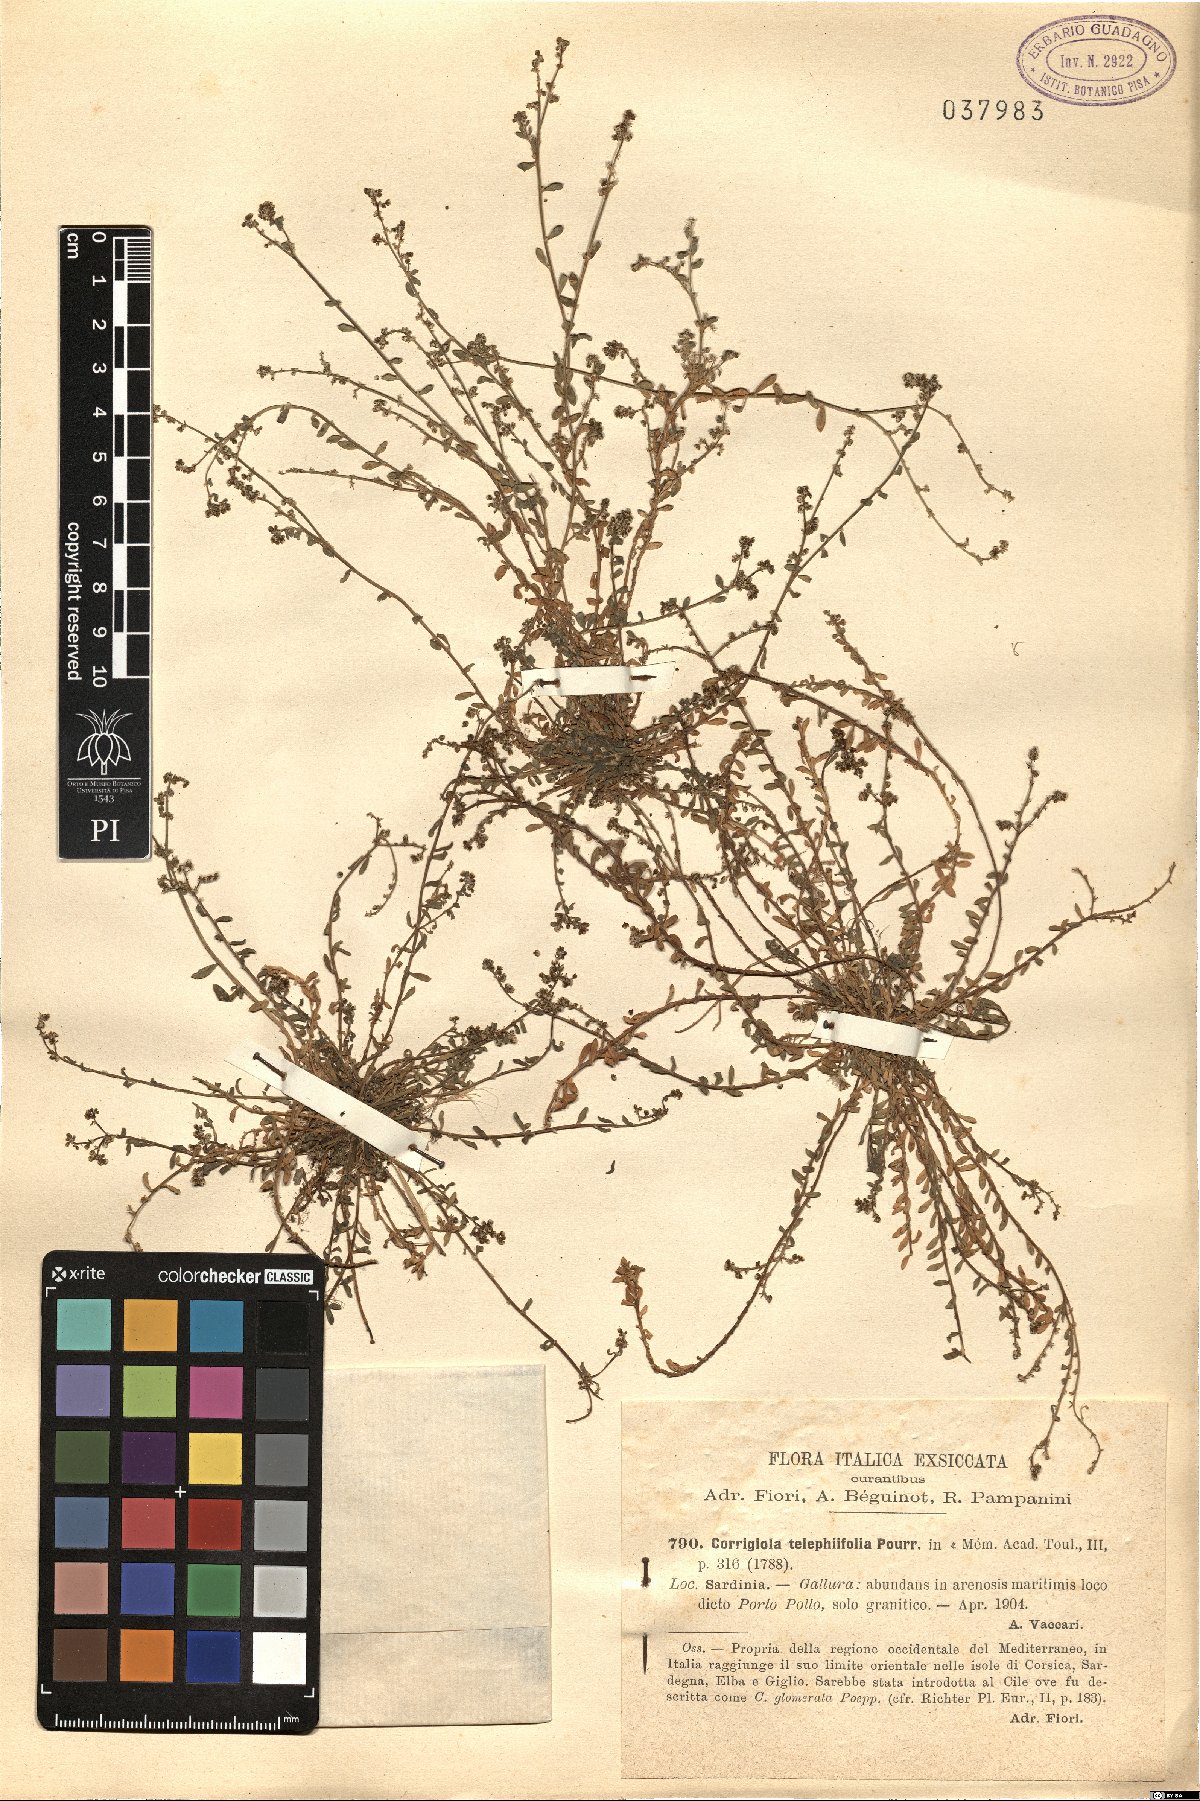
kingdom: Plantae
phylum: Tracheophyta
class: Magnoliopsida
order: Caryophyllales
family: Caryophyllaceae
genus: Corrigiola
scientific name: Corrigiola telephiifolia
